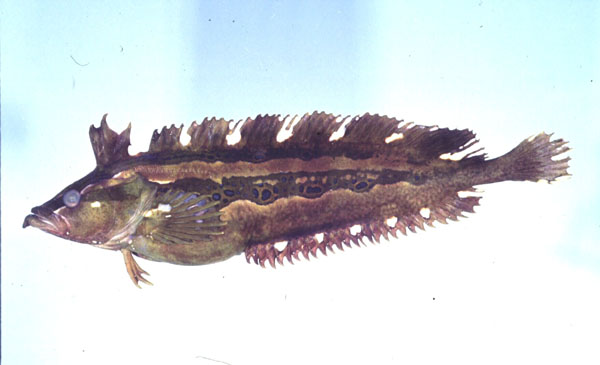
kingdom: Animalia
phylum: Chordata
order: Perciformes
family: Clinidae
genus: Pavoclinus
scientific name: Pavoclinus mentalis
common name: Bearded klipfish
